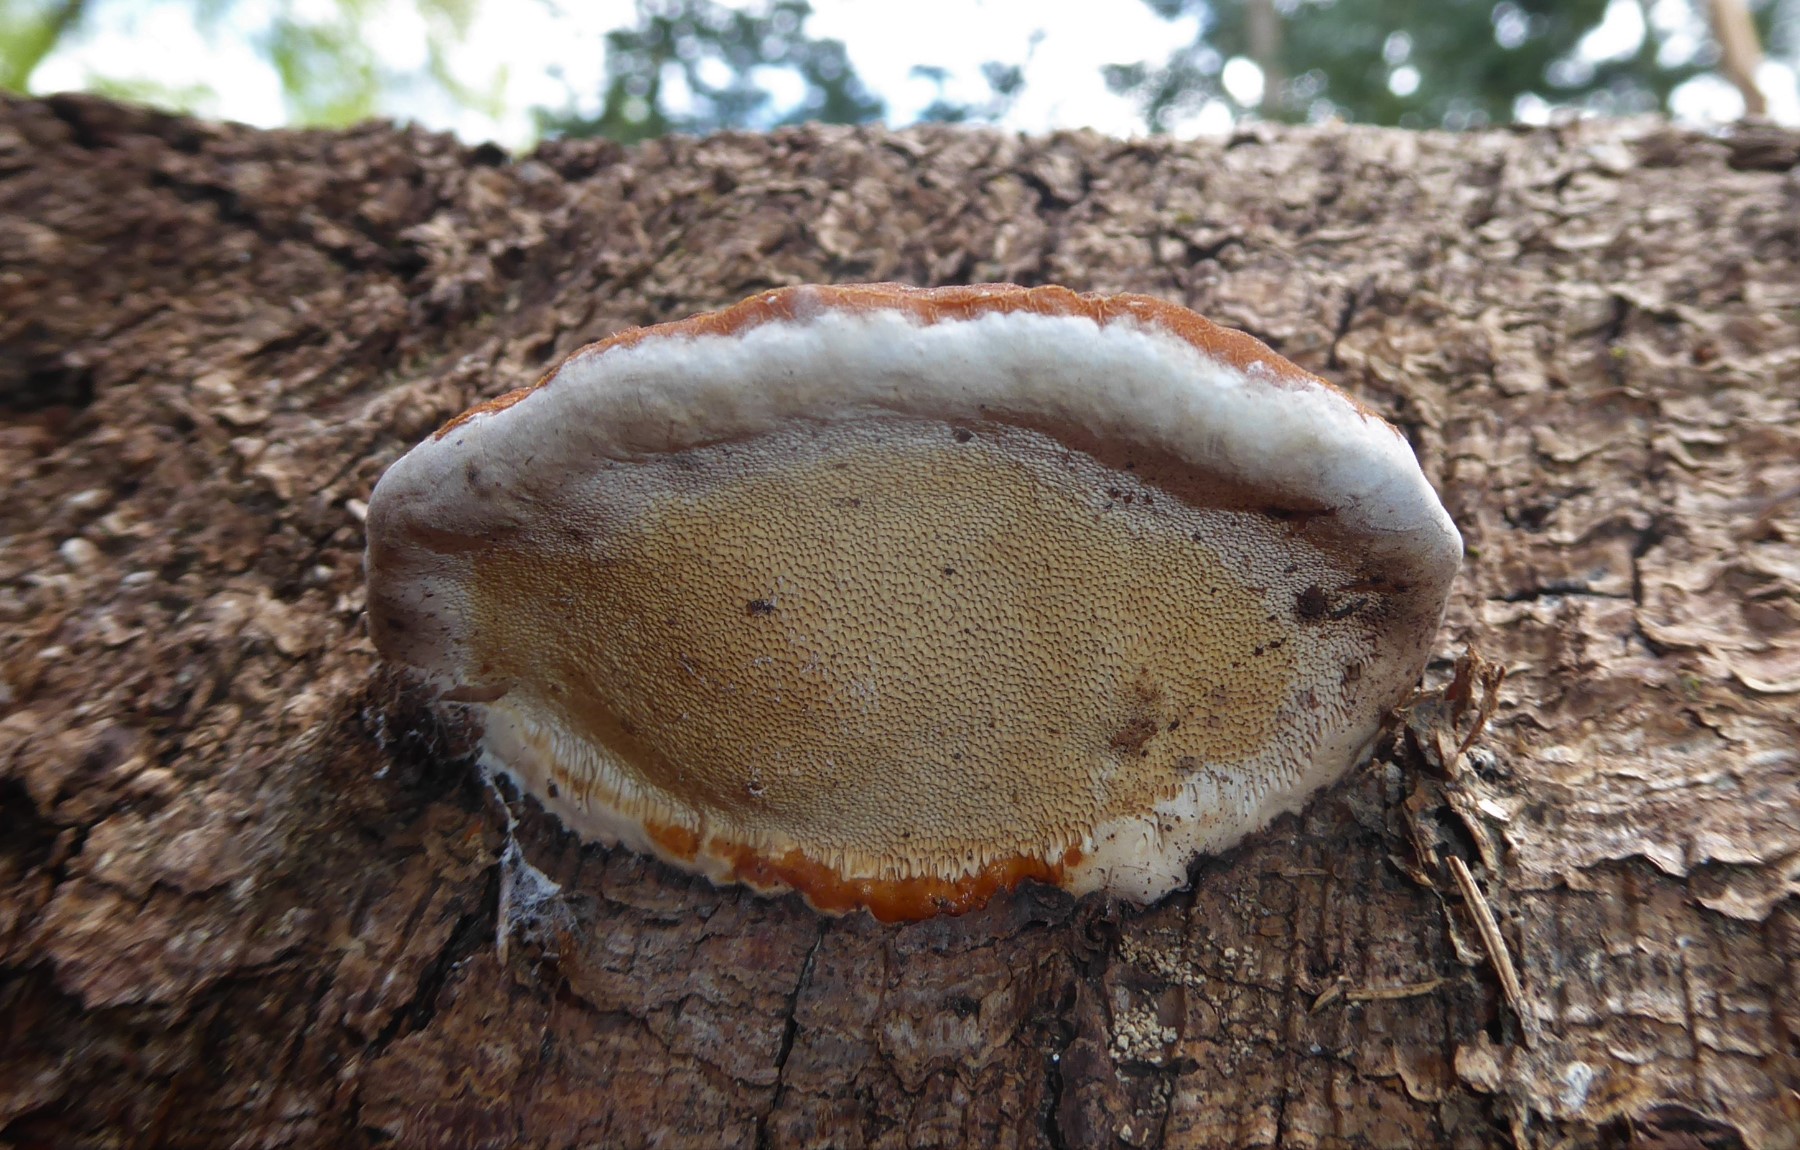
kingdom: Fungi
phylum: Basidiomycota
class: Agaricomycetes
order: Polyporales
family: Fomitopsidaceae
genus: Fomitopsis
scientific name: Fomitopsis pinicola
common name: randbæltet hovporesvamp
